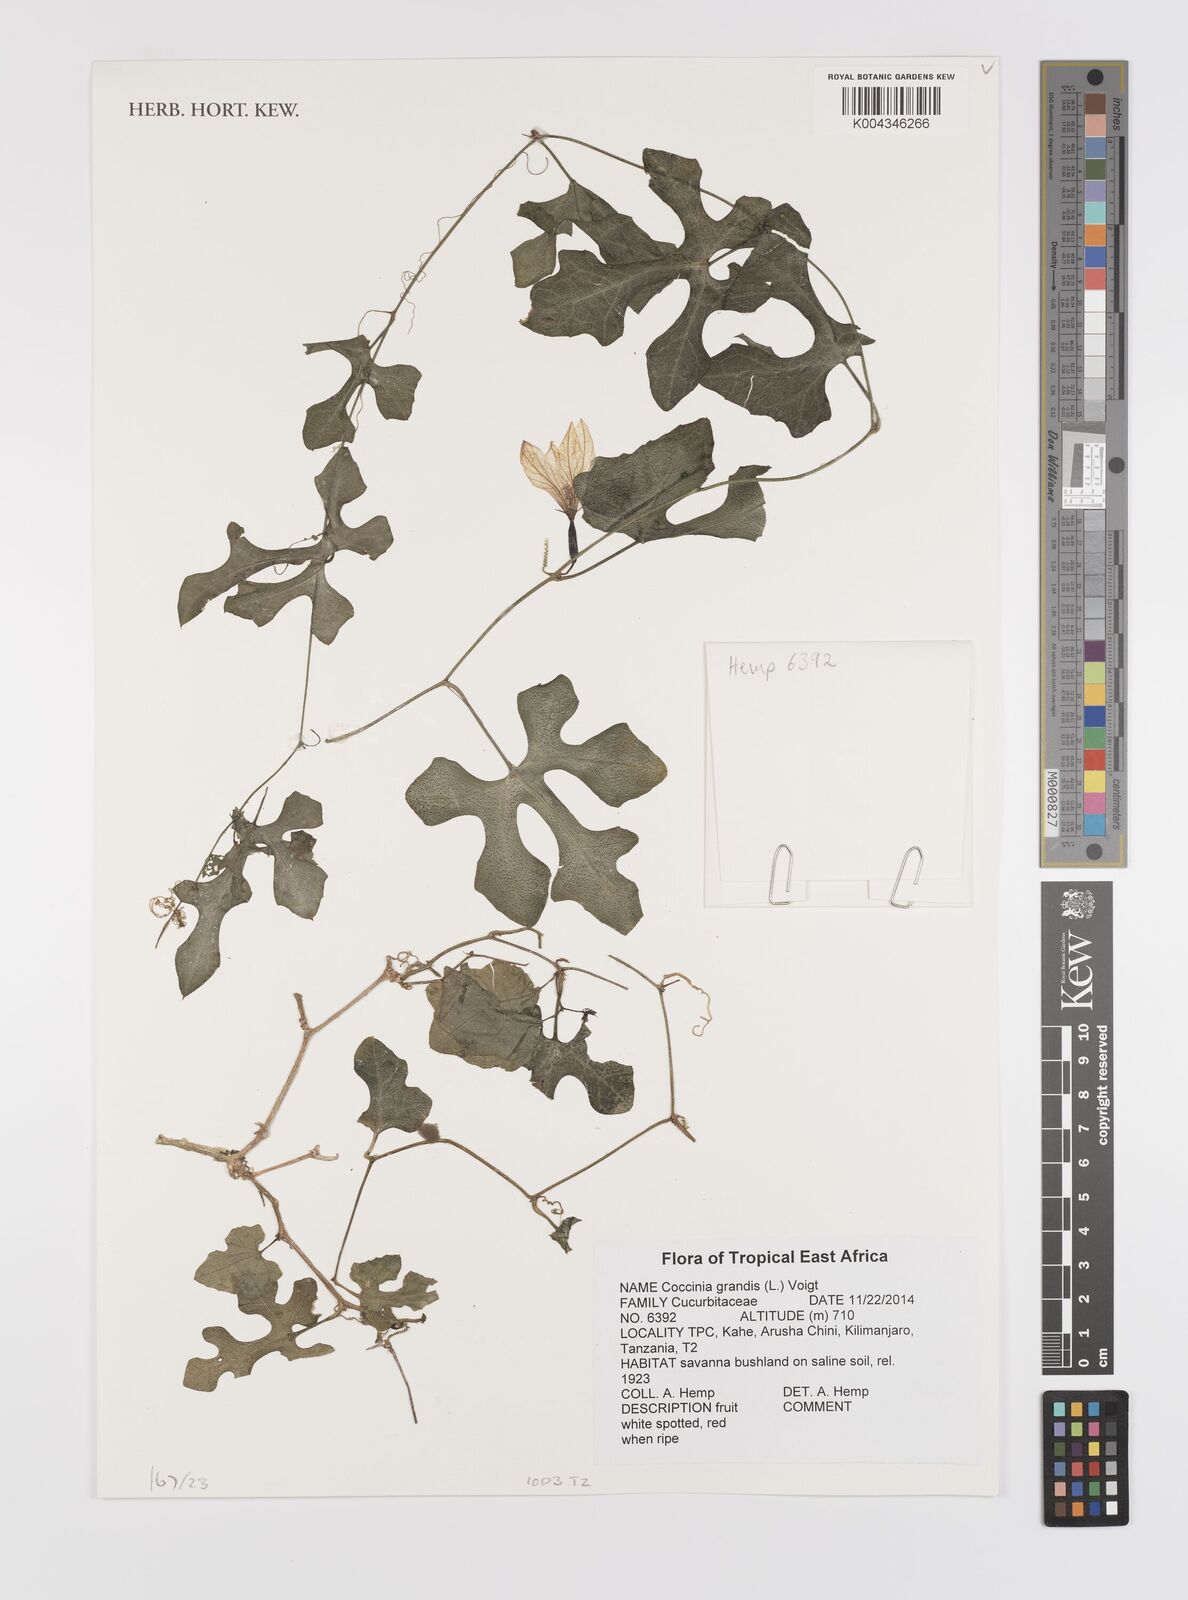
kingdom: Plantae
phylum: Tracheophyta
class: Magnoliopsida
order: Cucurbitales
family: Cucurbitaceae
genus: Coccinia
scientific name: Coccinia grandis
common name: Ivy gourd
